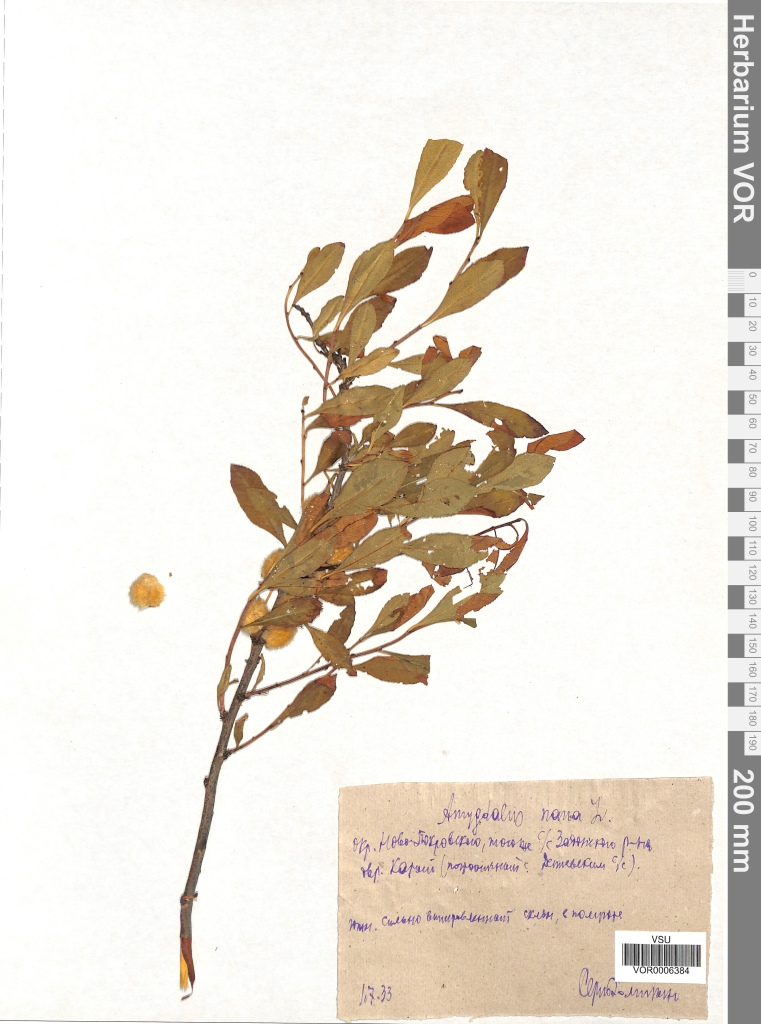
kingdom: Plantae
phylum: Tracheophyta
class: Magnoliopsida
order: Rosales
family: Rosaceae
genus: Prunus
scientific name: Prunus tenella
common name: Dwarf russian almond
